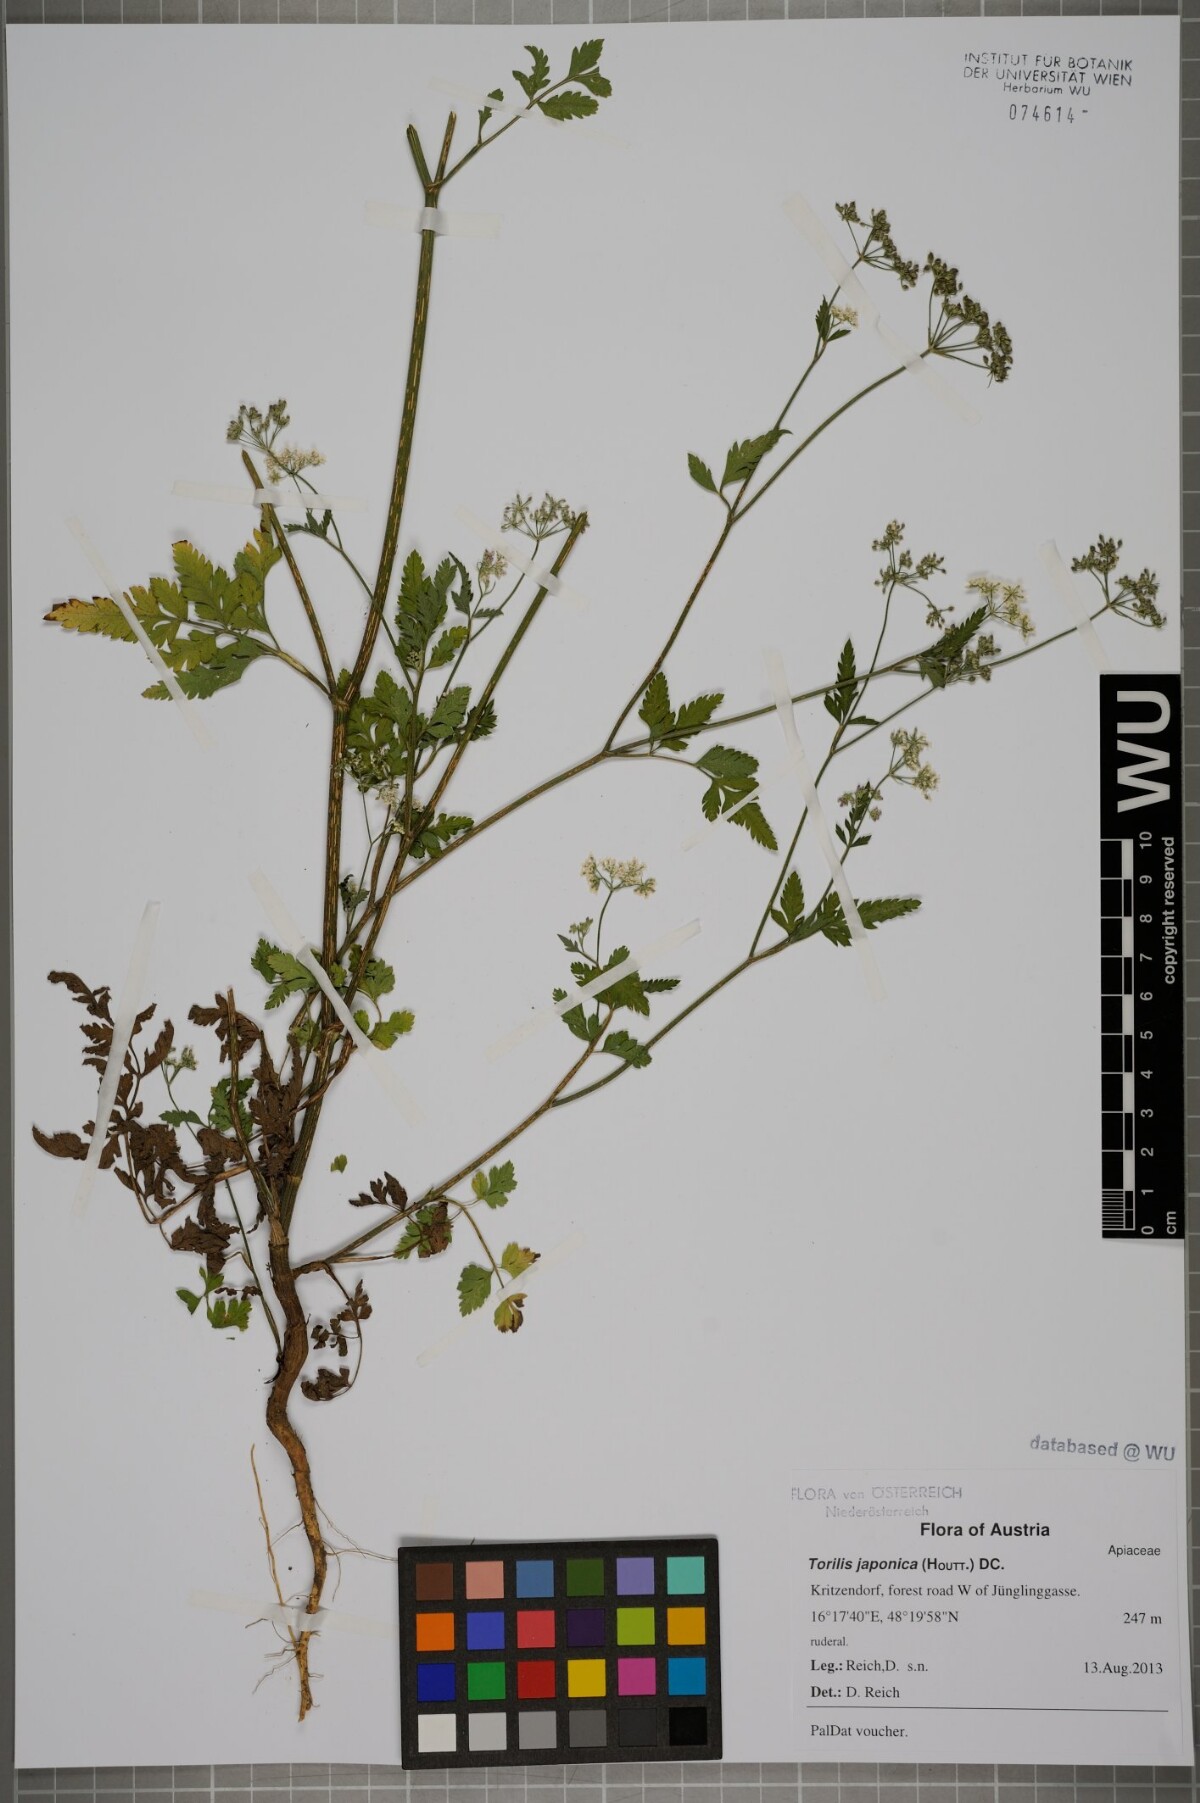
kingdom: Plantae
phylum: Tracheophyta
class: Magnoliopsida
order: Apiales
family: Apiaceae
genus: Torilis
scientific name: Torilis japonica
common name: Upright hedge-parsley
